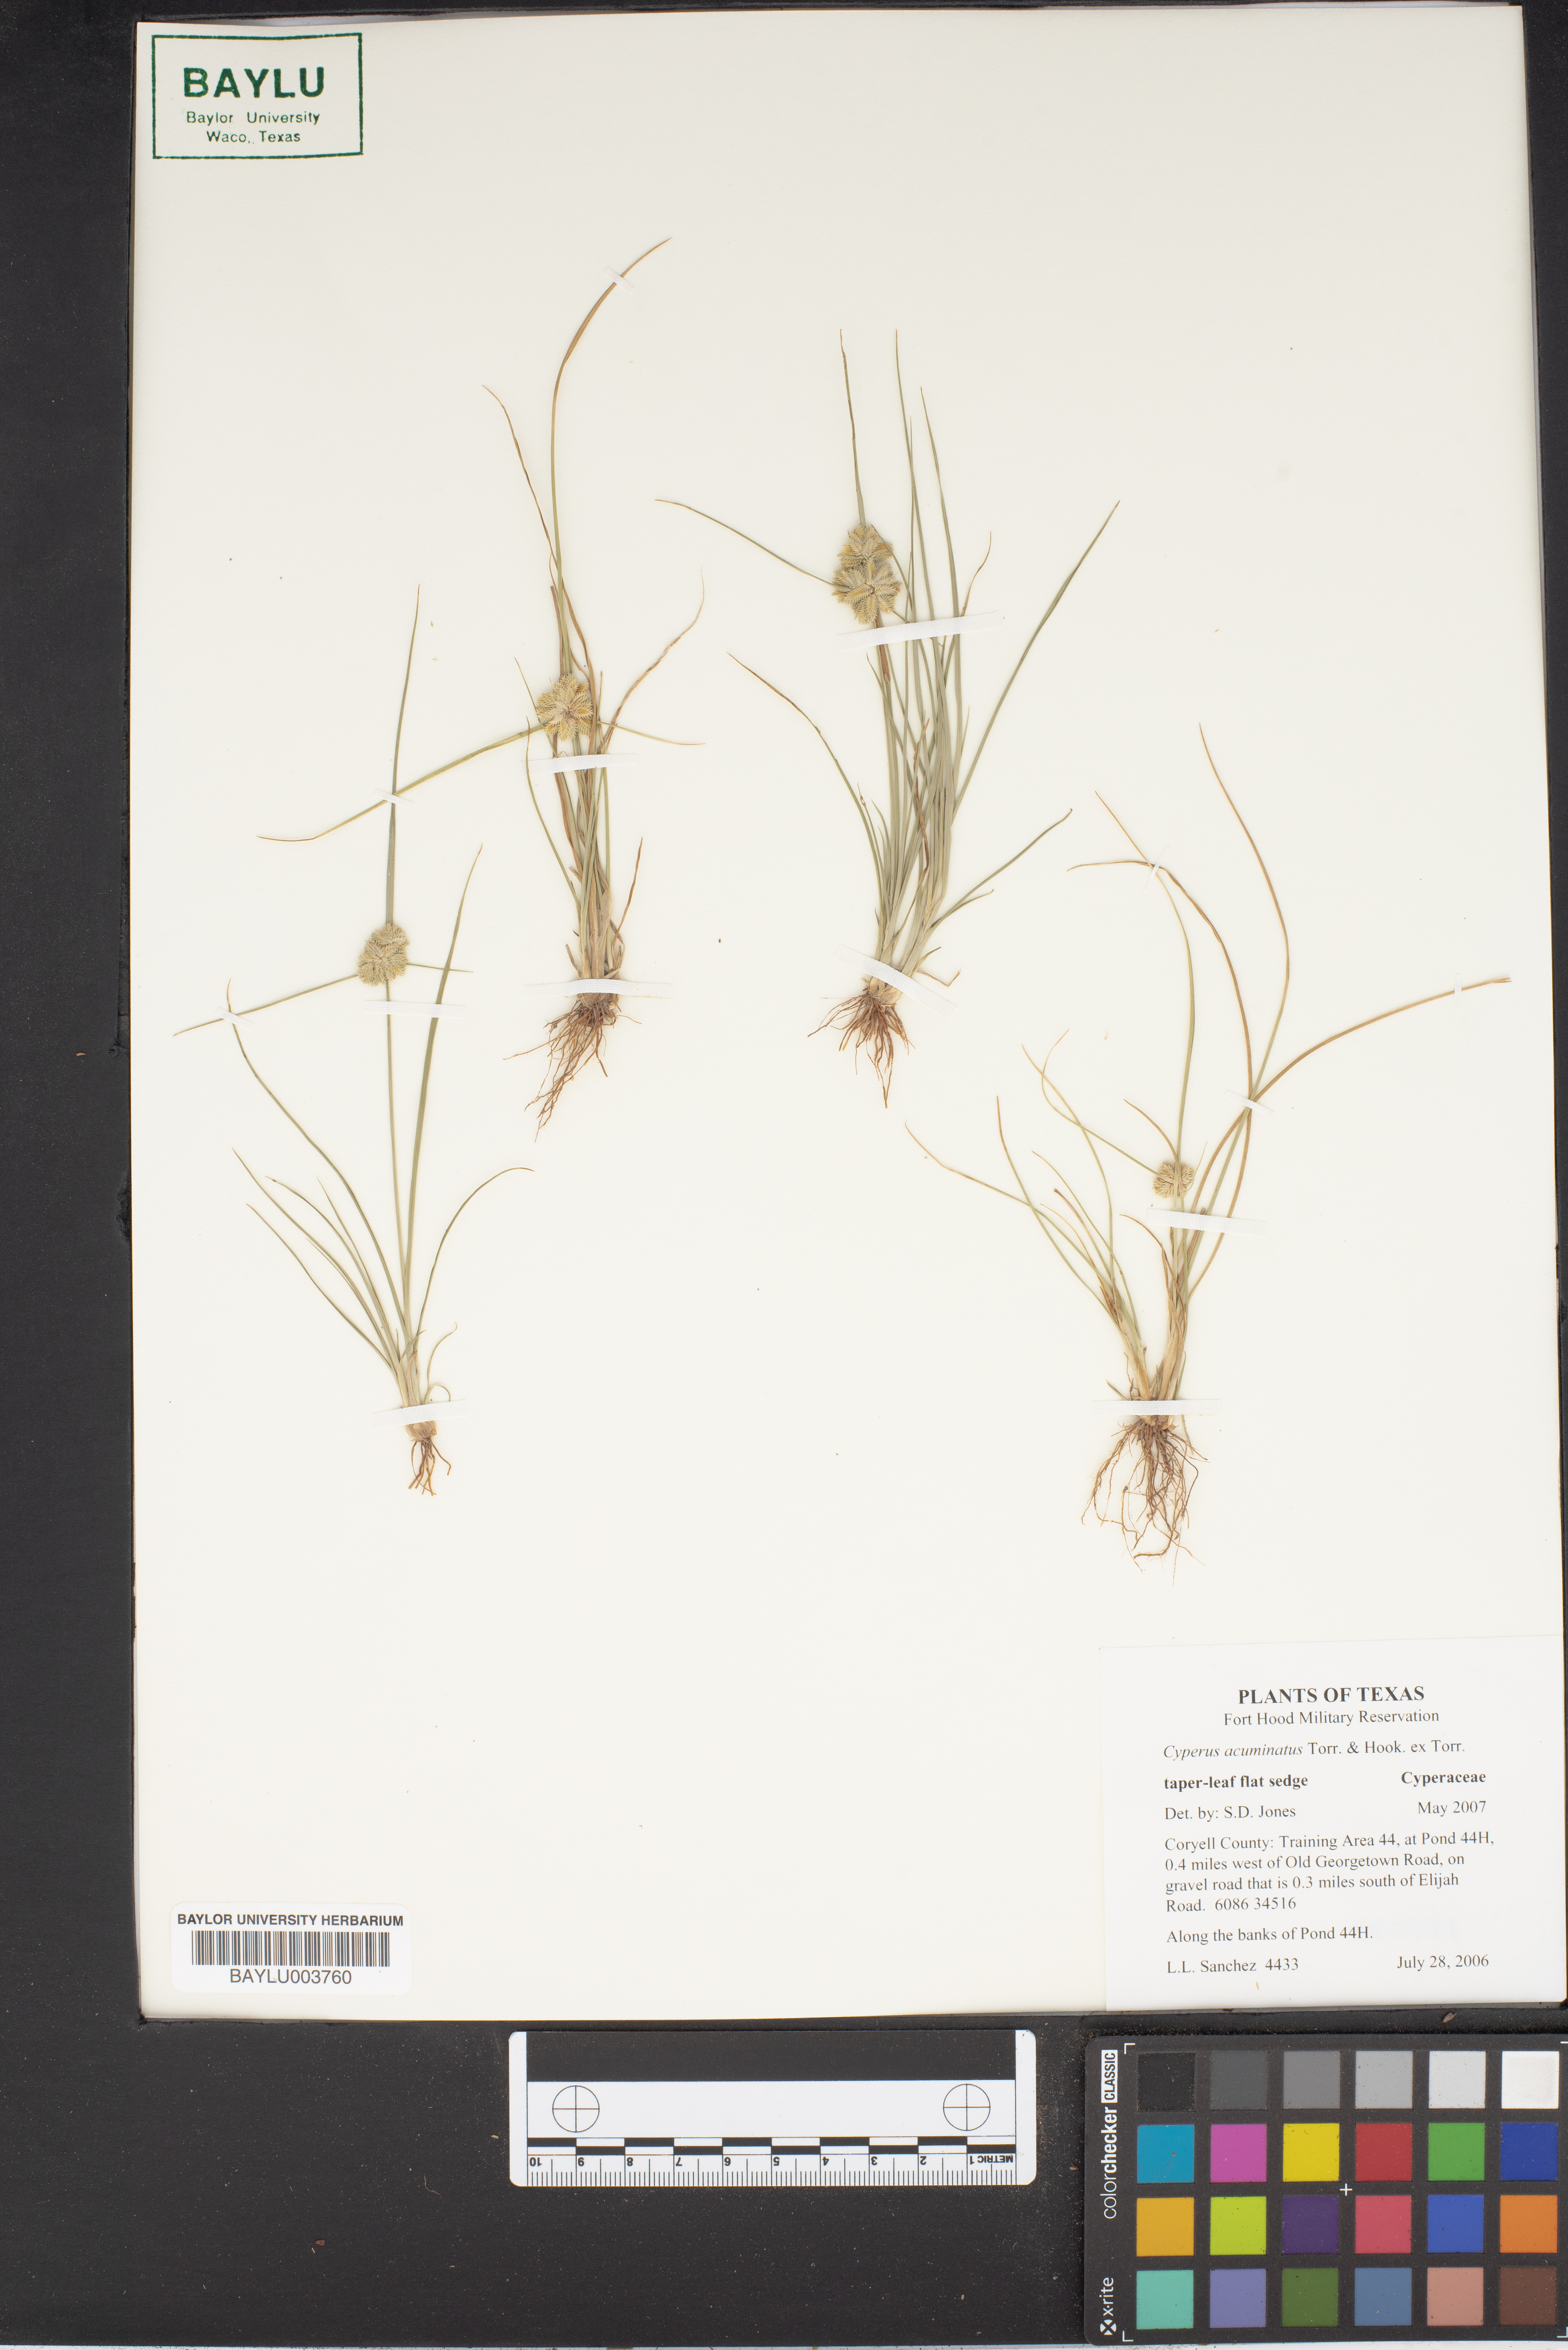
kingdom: Plantae
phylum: Tracheophyta
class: Liliopsida
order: Poales
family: Cyperaceae
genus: Cyperus
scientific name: Cyperus acuminatus
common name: Short-pointed cyperus
